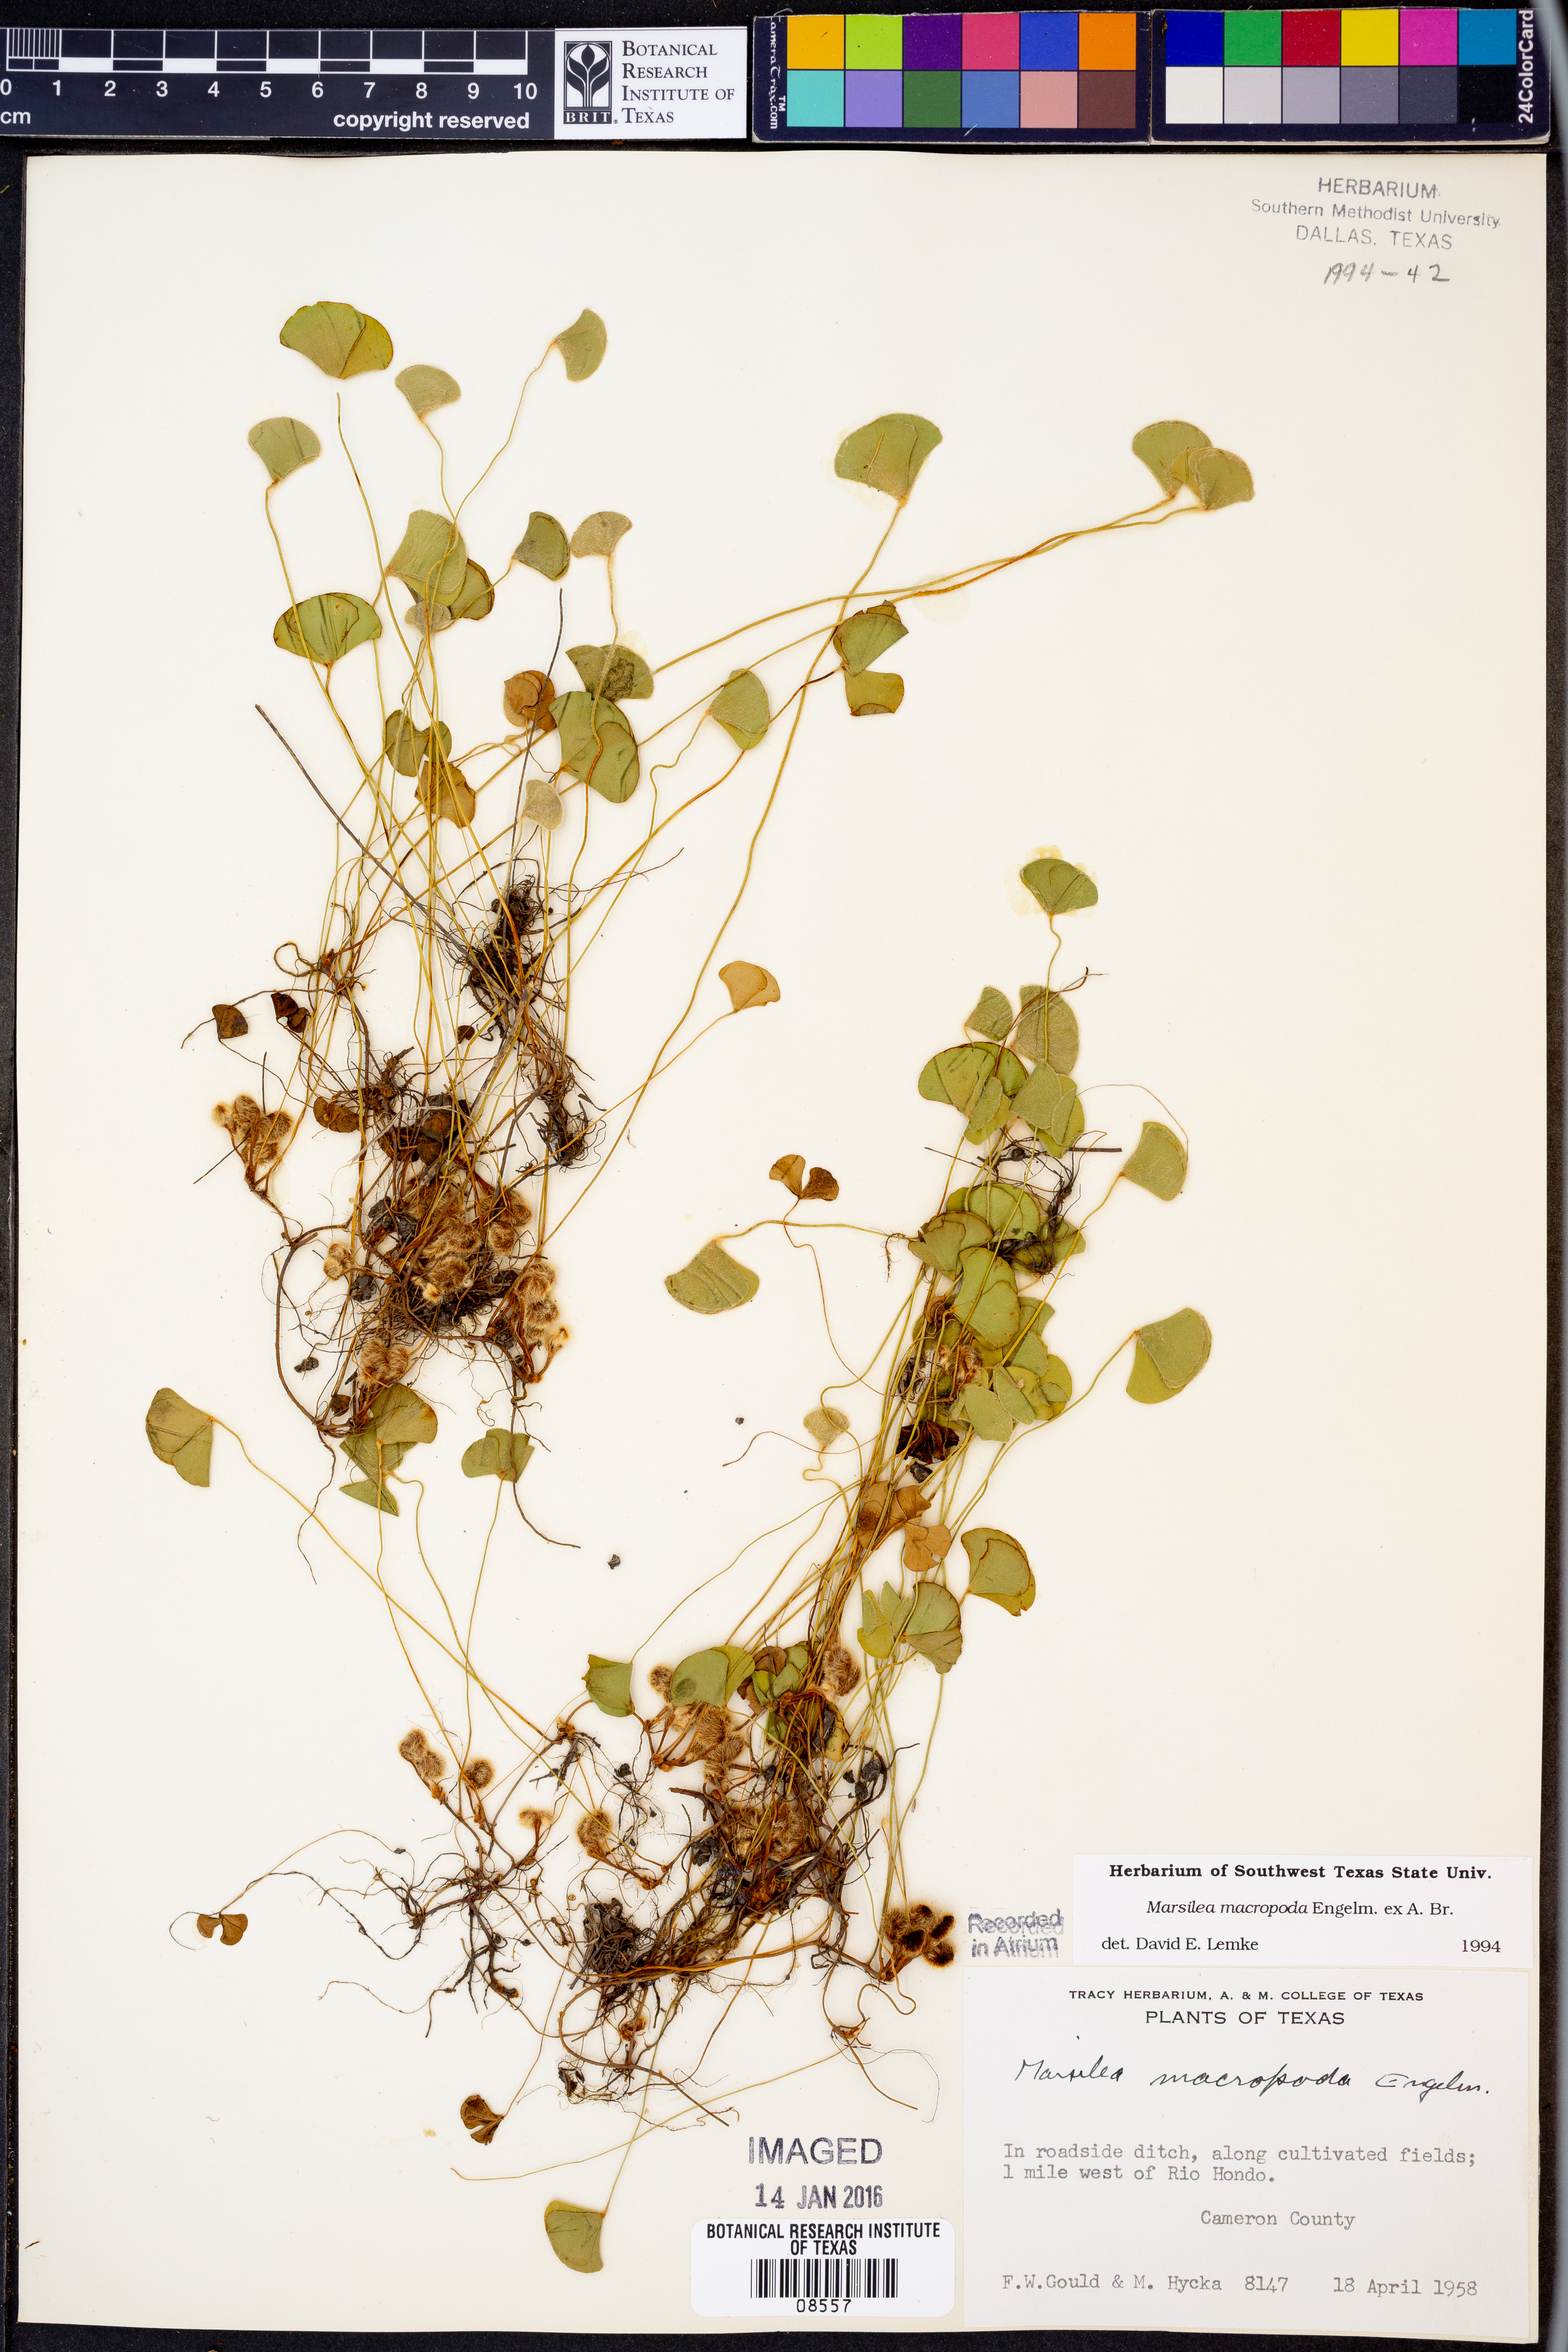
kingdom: Plantae
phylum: Tracheophyta
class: Polypodiopsida
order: Salviniales
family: Marsileaceae
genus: Marsilea
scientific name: Marsilea macropoda
